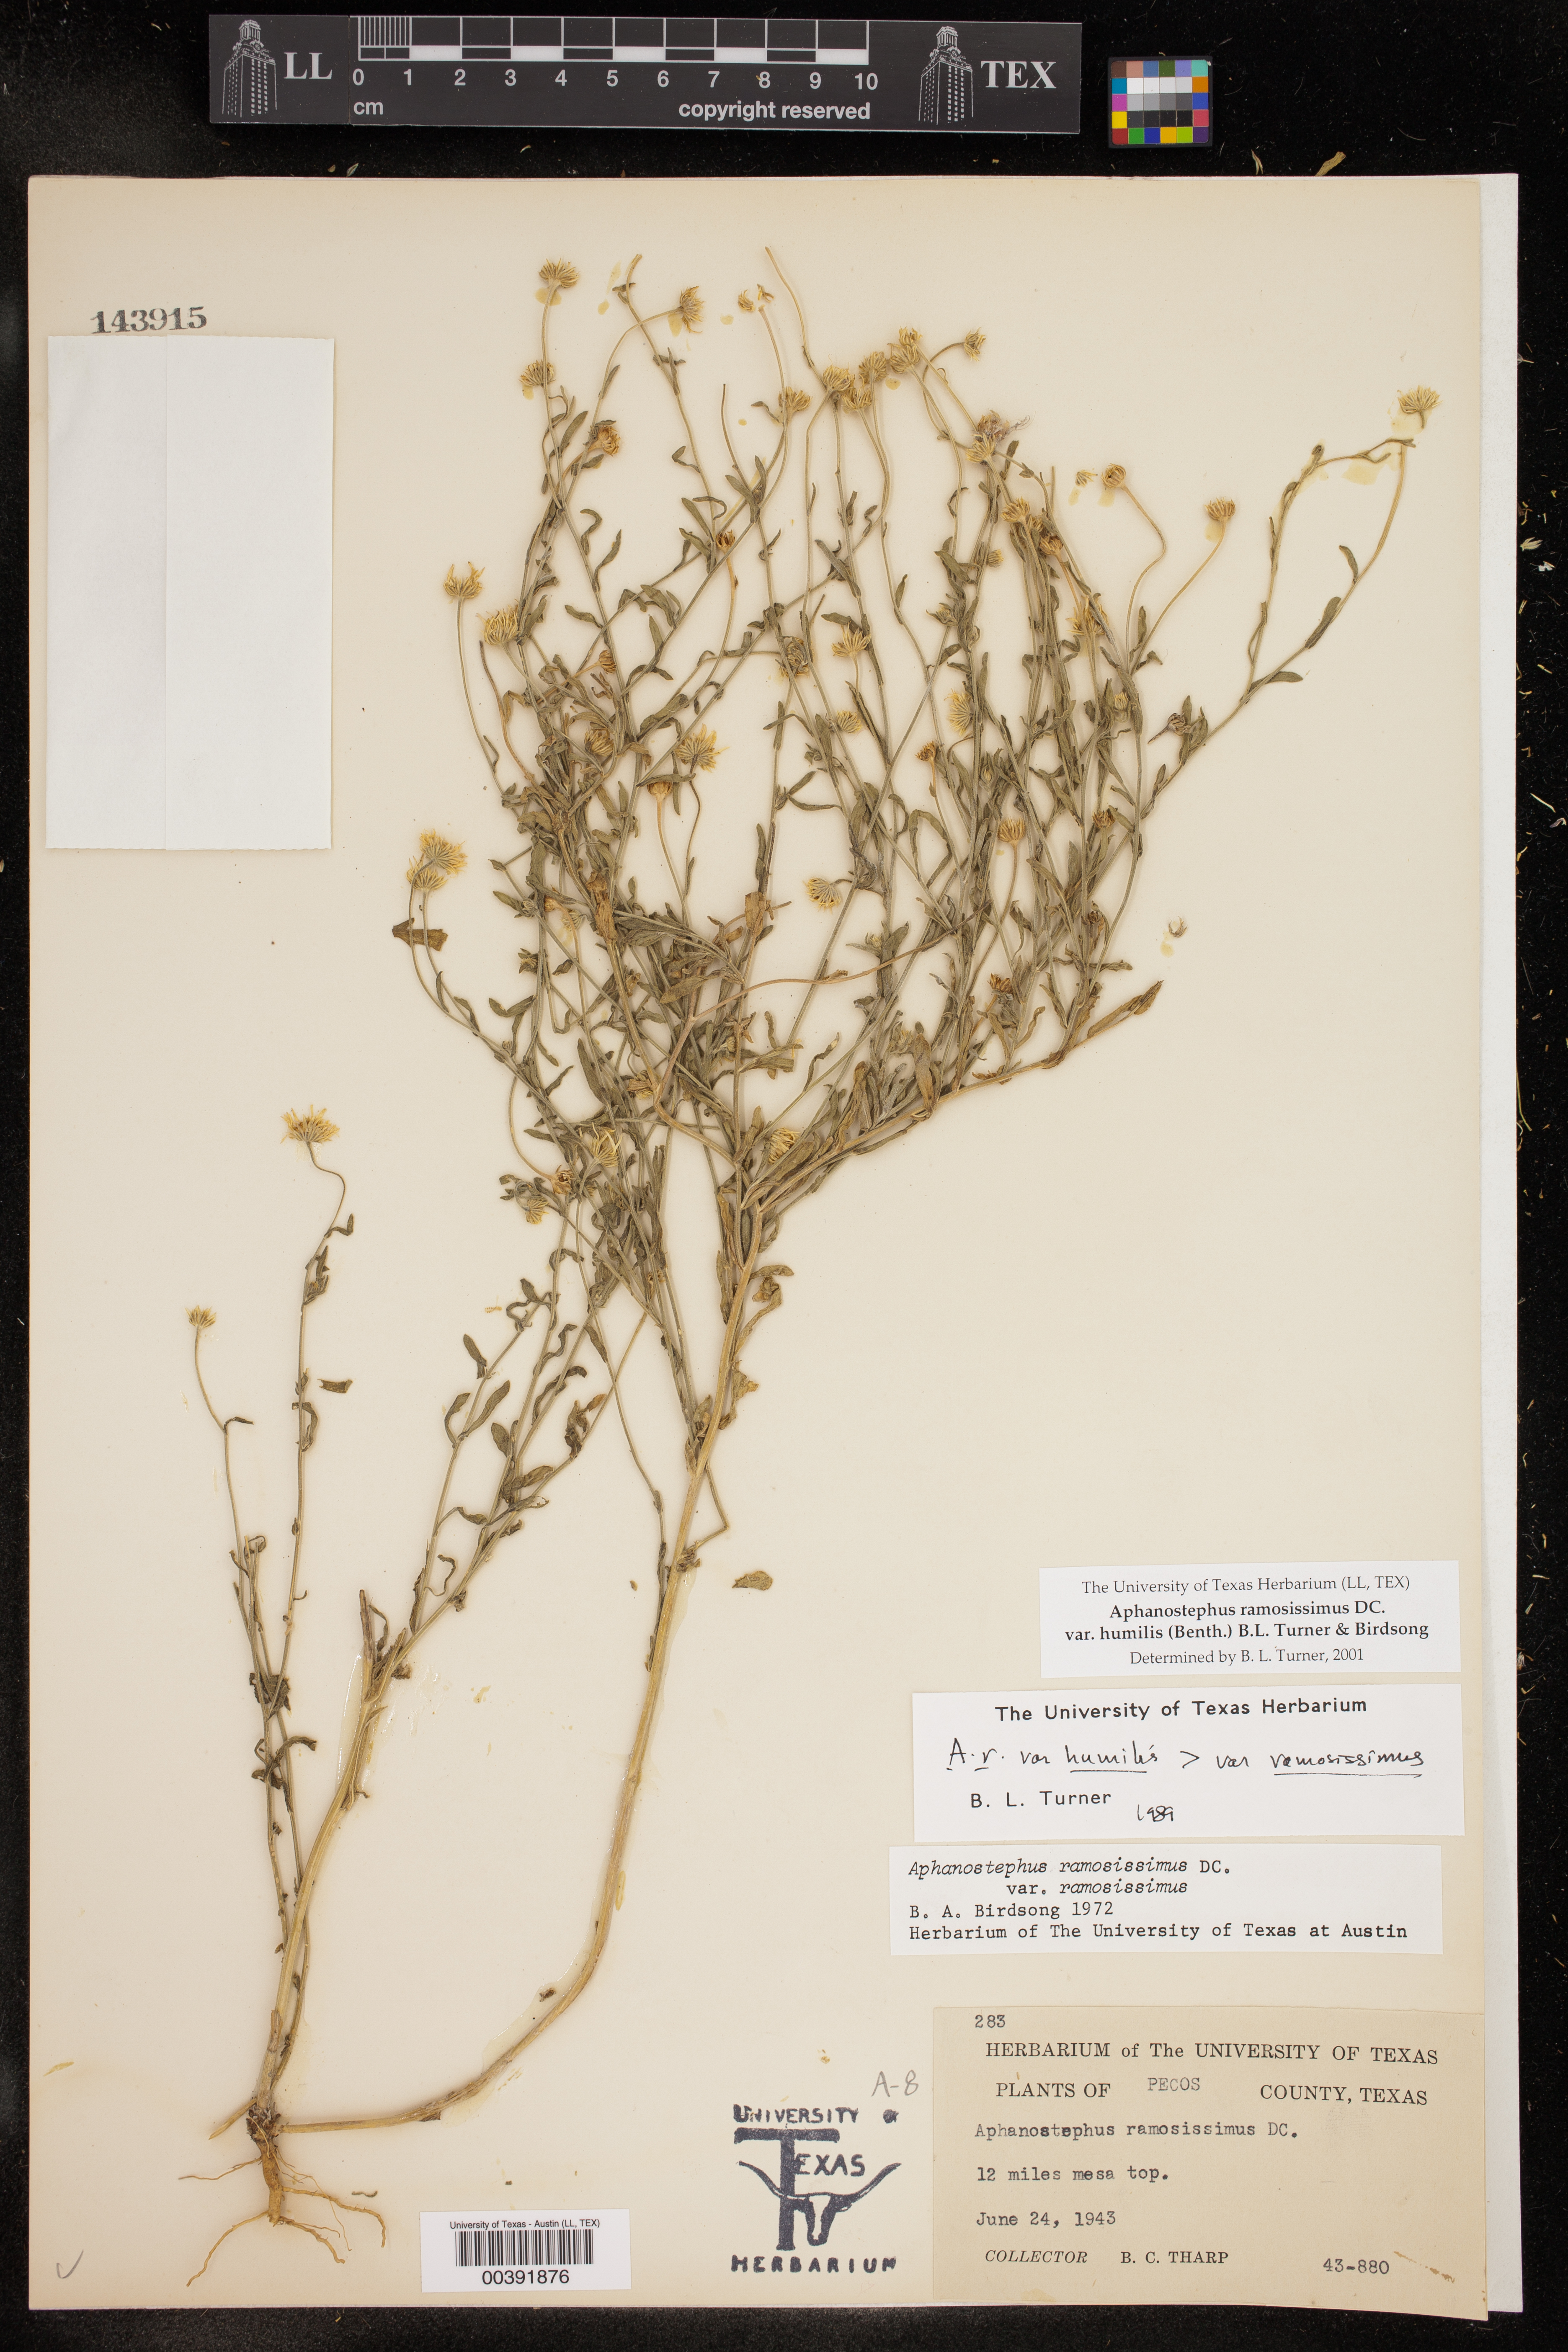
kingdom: Plantae
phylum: Tracheophyta
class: Magnoliopsida
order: Asterales
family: Asteraceae
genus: Aphanostephus
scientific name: Aphanostephus ramosissimus
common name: Plains lazy daisy
